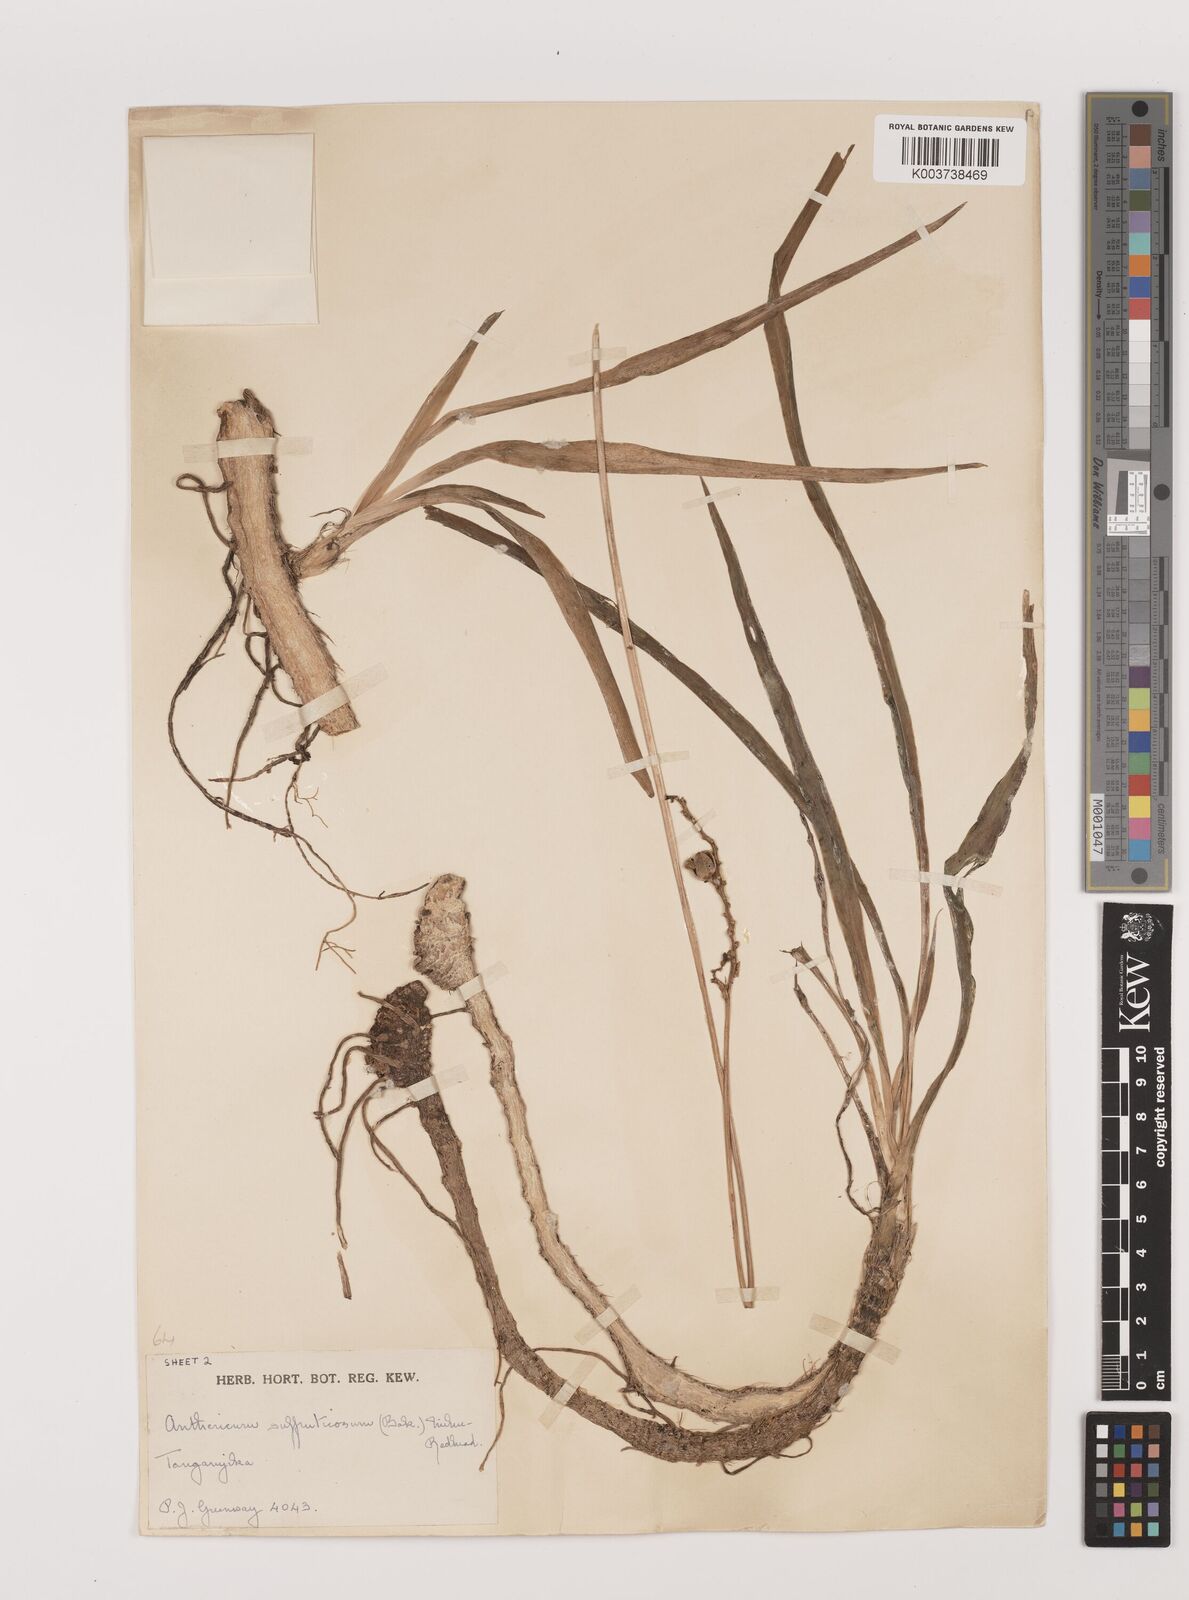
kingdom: Plantae
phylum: Tracheophyta
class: Liliopsida
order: Asparagales
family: Asparagaceae
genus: Chlorophytum
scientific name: Chlorophytum suffruticosum
